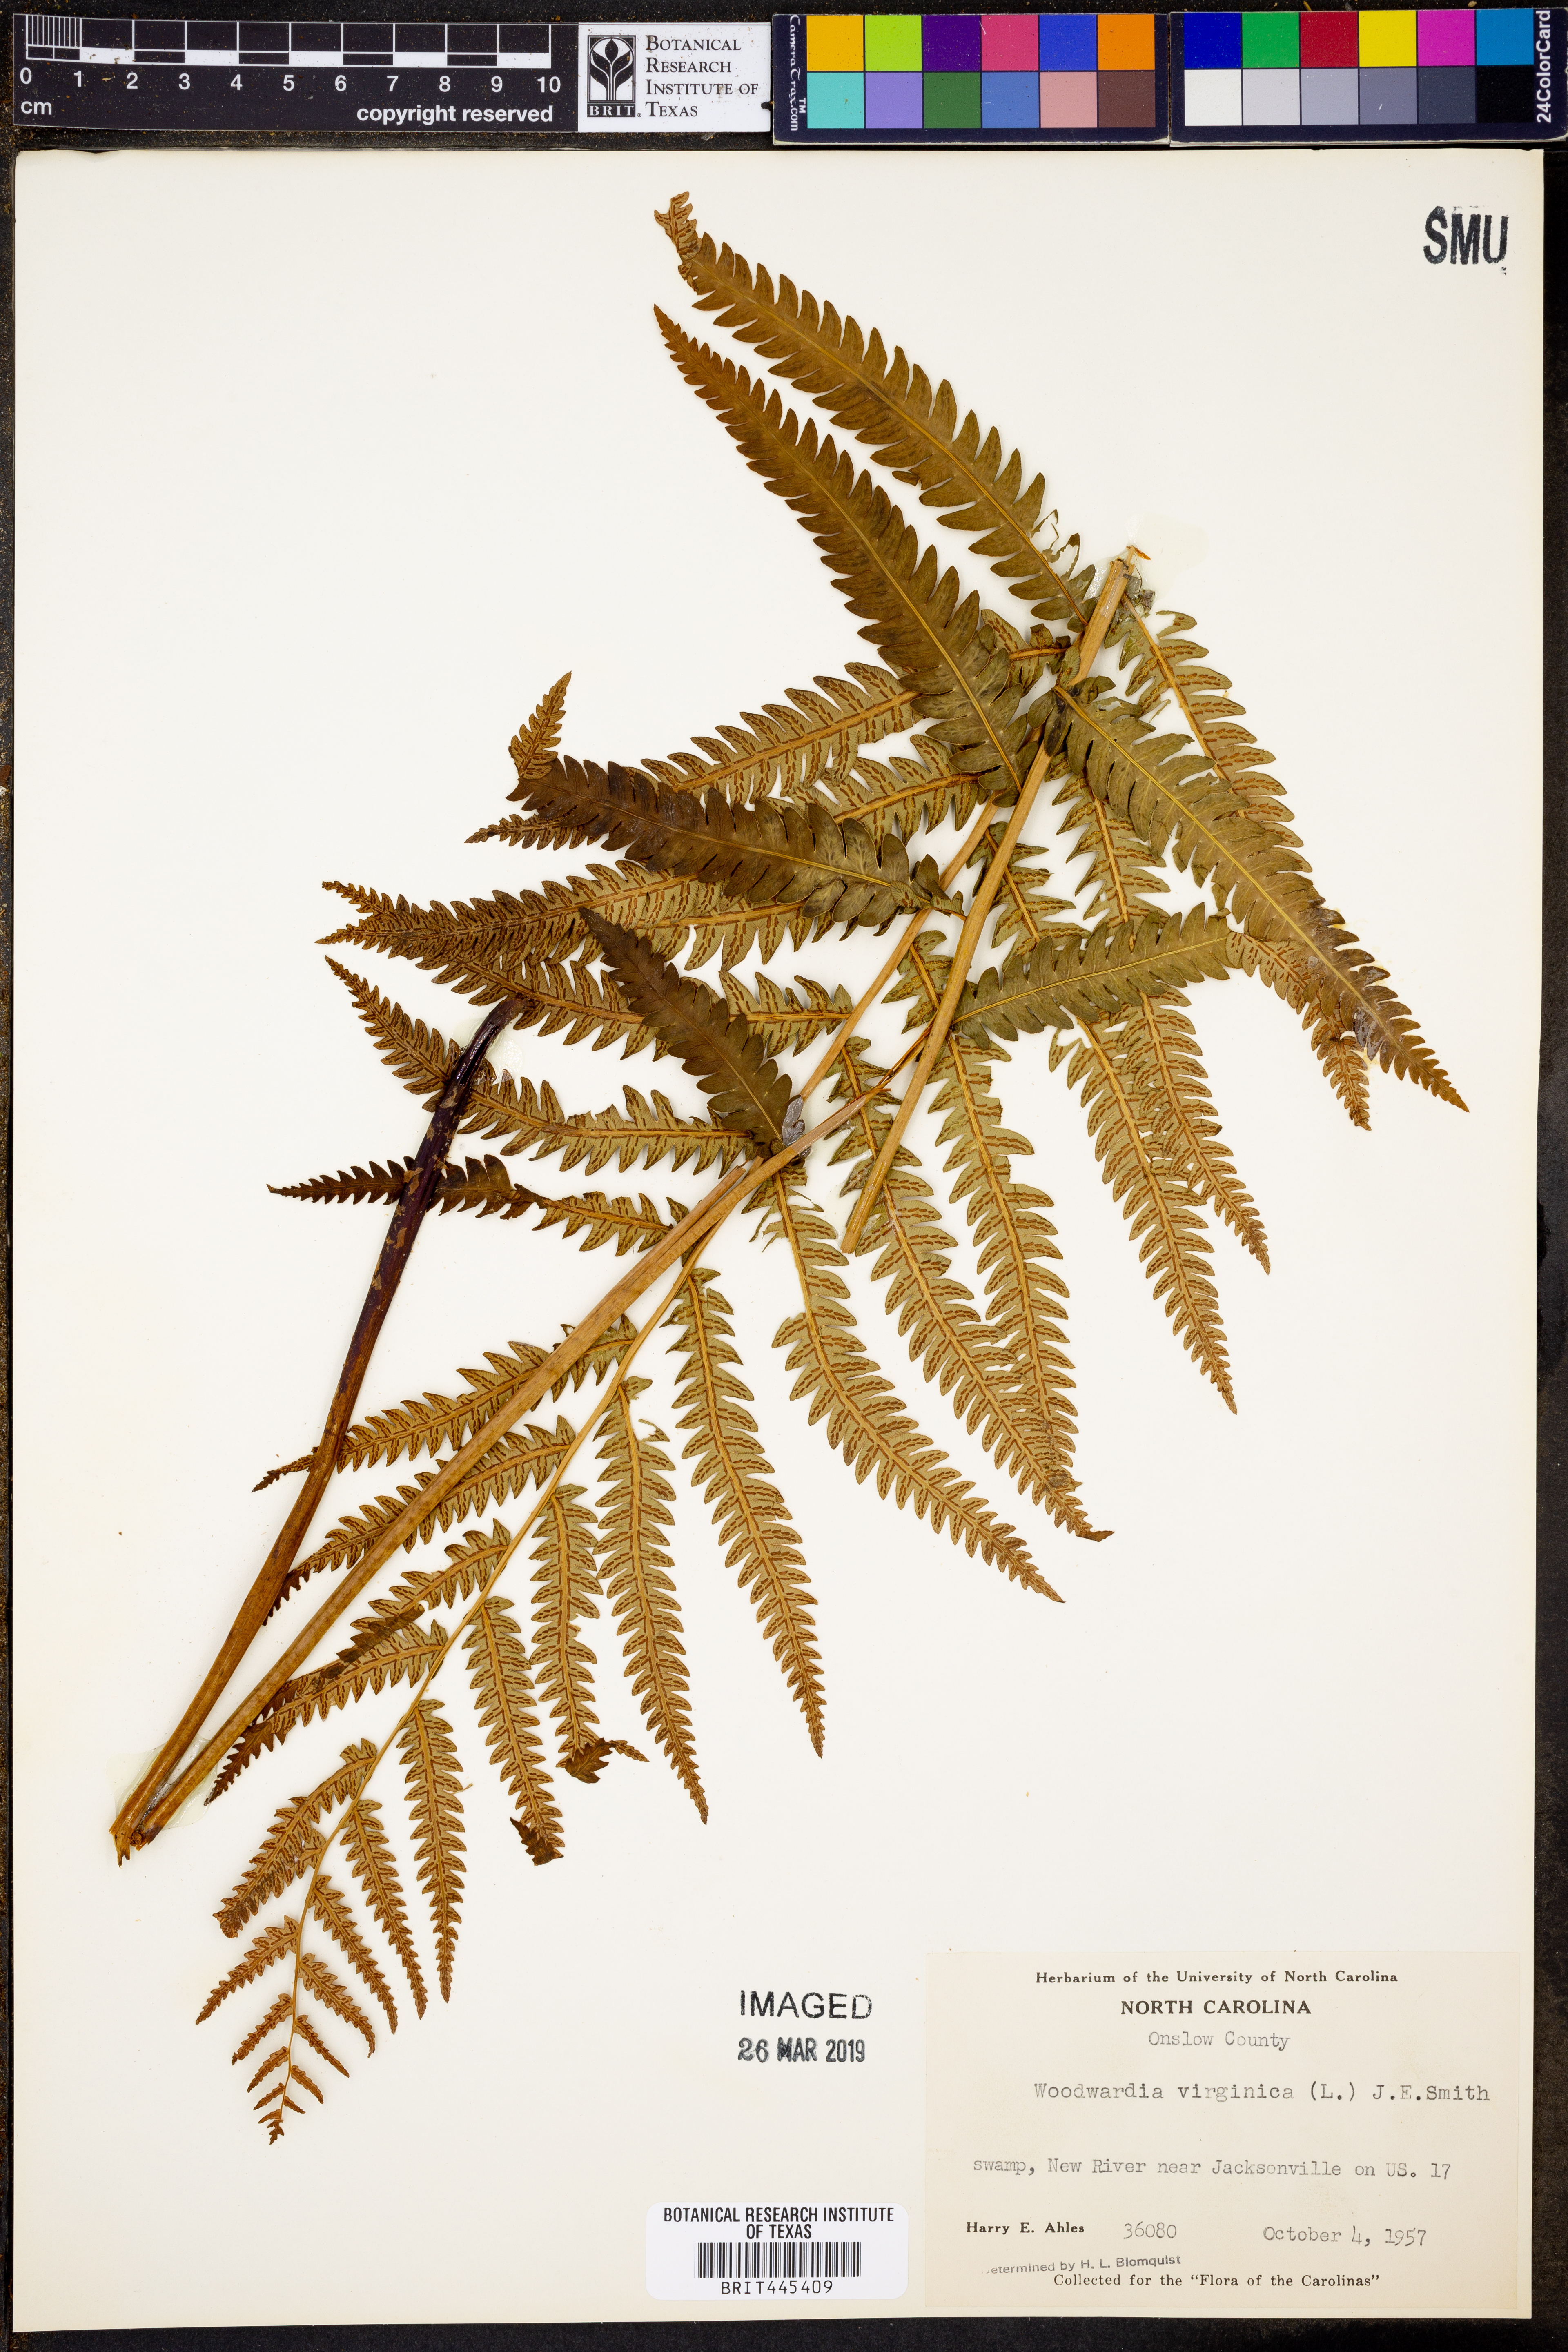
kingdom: Plantae
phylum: Tracheophyta
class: Polypodiopsida
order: Polypodiales
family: Blechnaceae
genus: Anchistea
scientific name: Anchistea virginica
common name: Virginia chain fern
